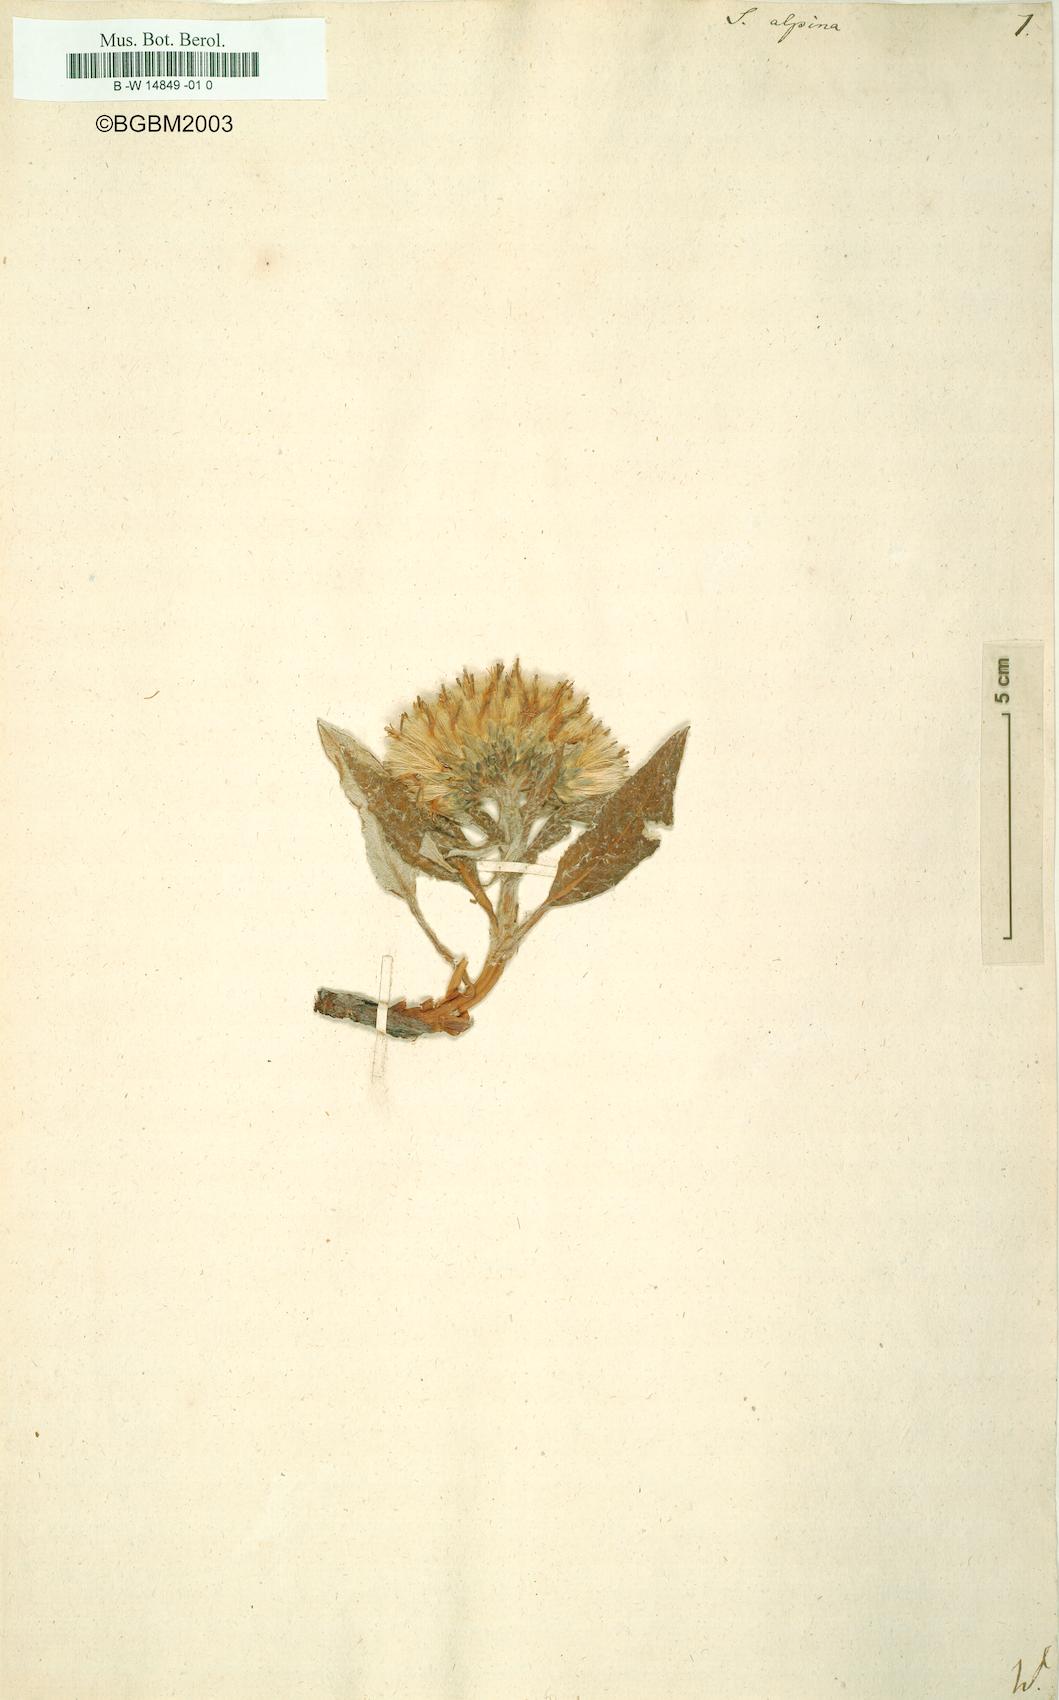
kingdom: Plantae
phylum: Tracheophyta
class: Magnoliopsida
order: Asterales
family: Asteraceae
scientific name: Asteraceae
